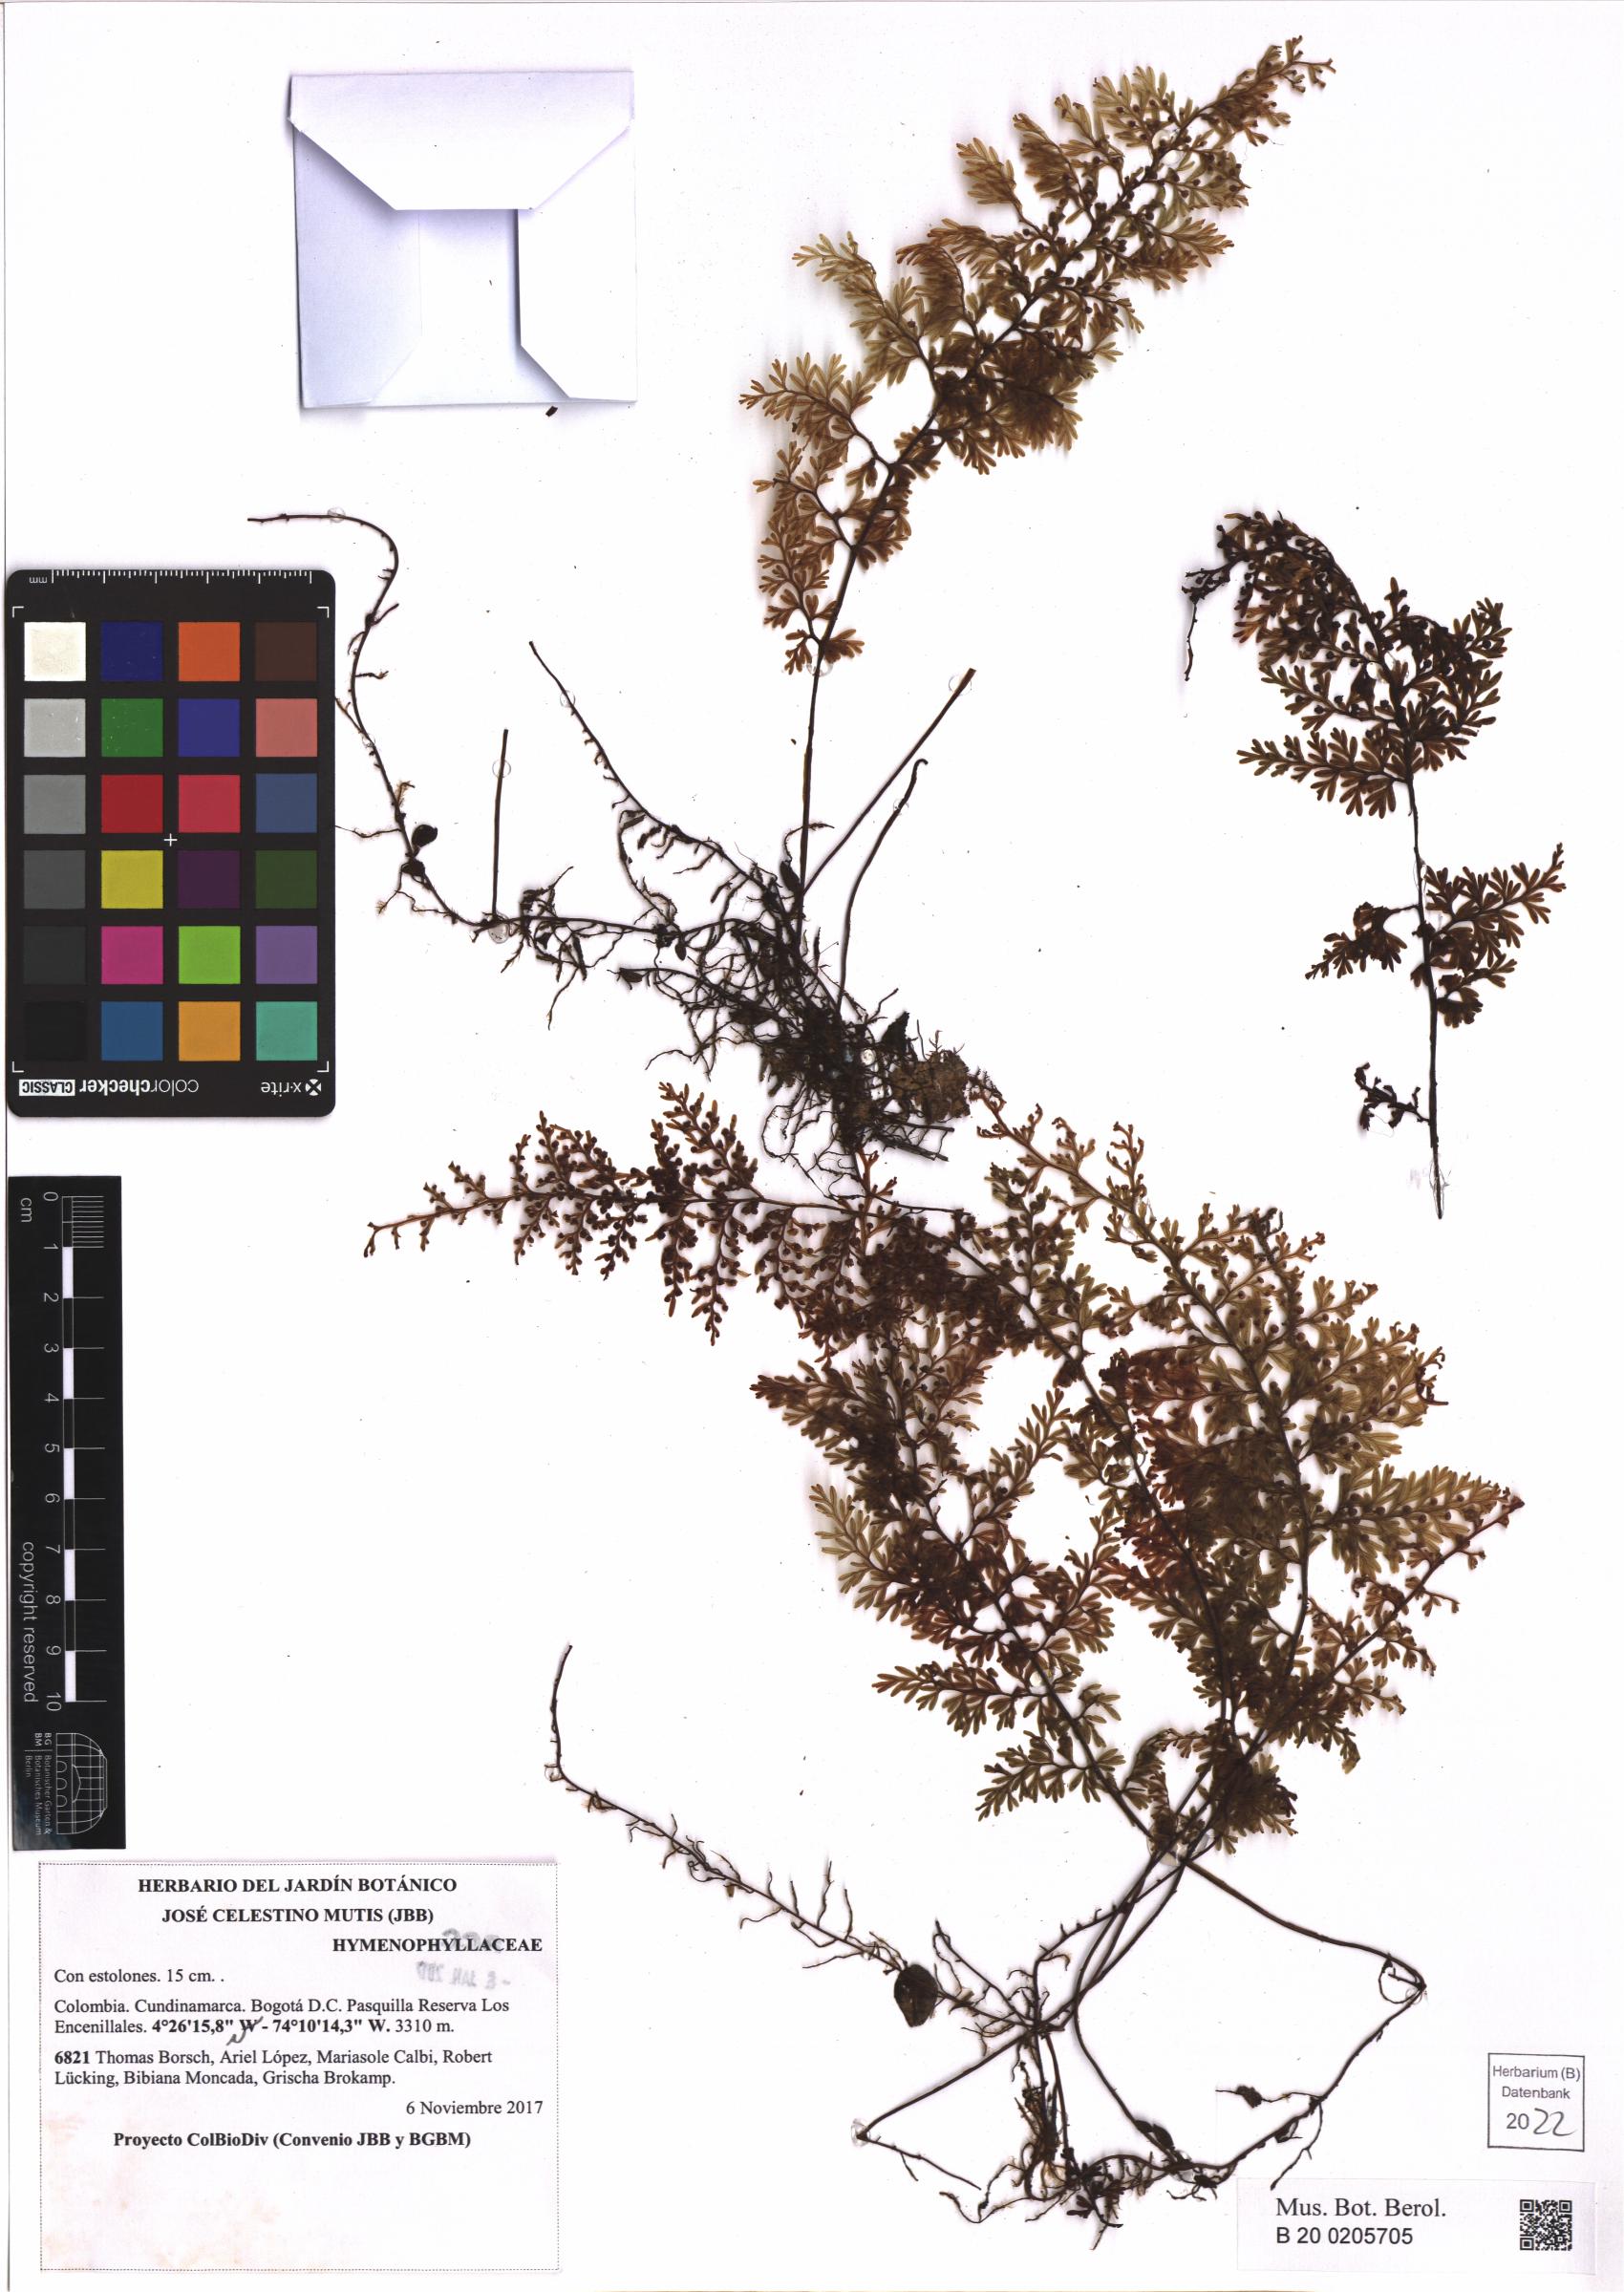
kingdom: Plantae
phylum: Tracheophyta
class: Polypodiopsida
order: Hymenophyllales
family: Hymenophyllaceae
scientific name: Hymenophyllaceae
